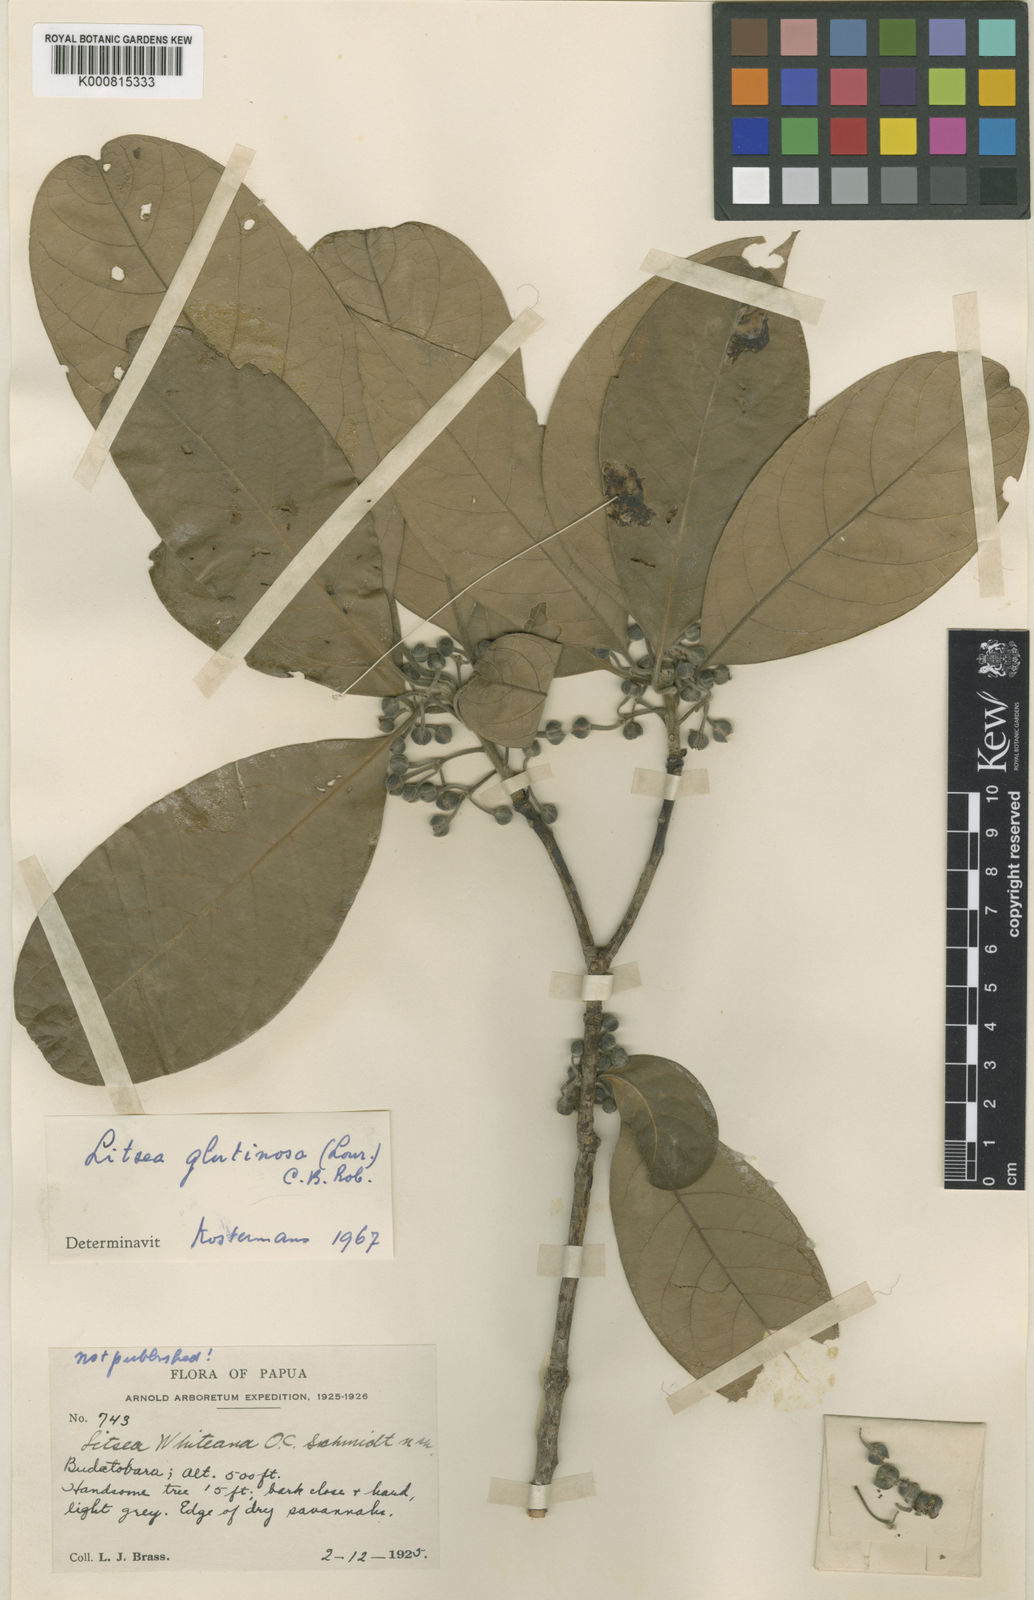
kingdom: Plantae
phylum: Tracheophyta
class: Magnoliopsida
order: Laurales
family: Lauraceae
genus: Litsea
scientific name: Litsea glutinosa
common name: Indian-laurel
